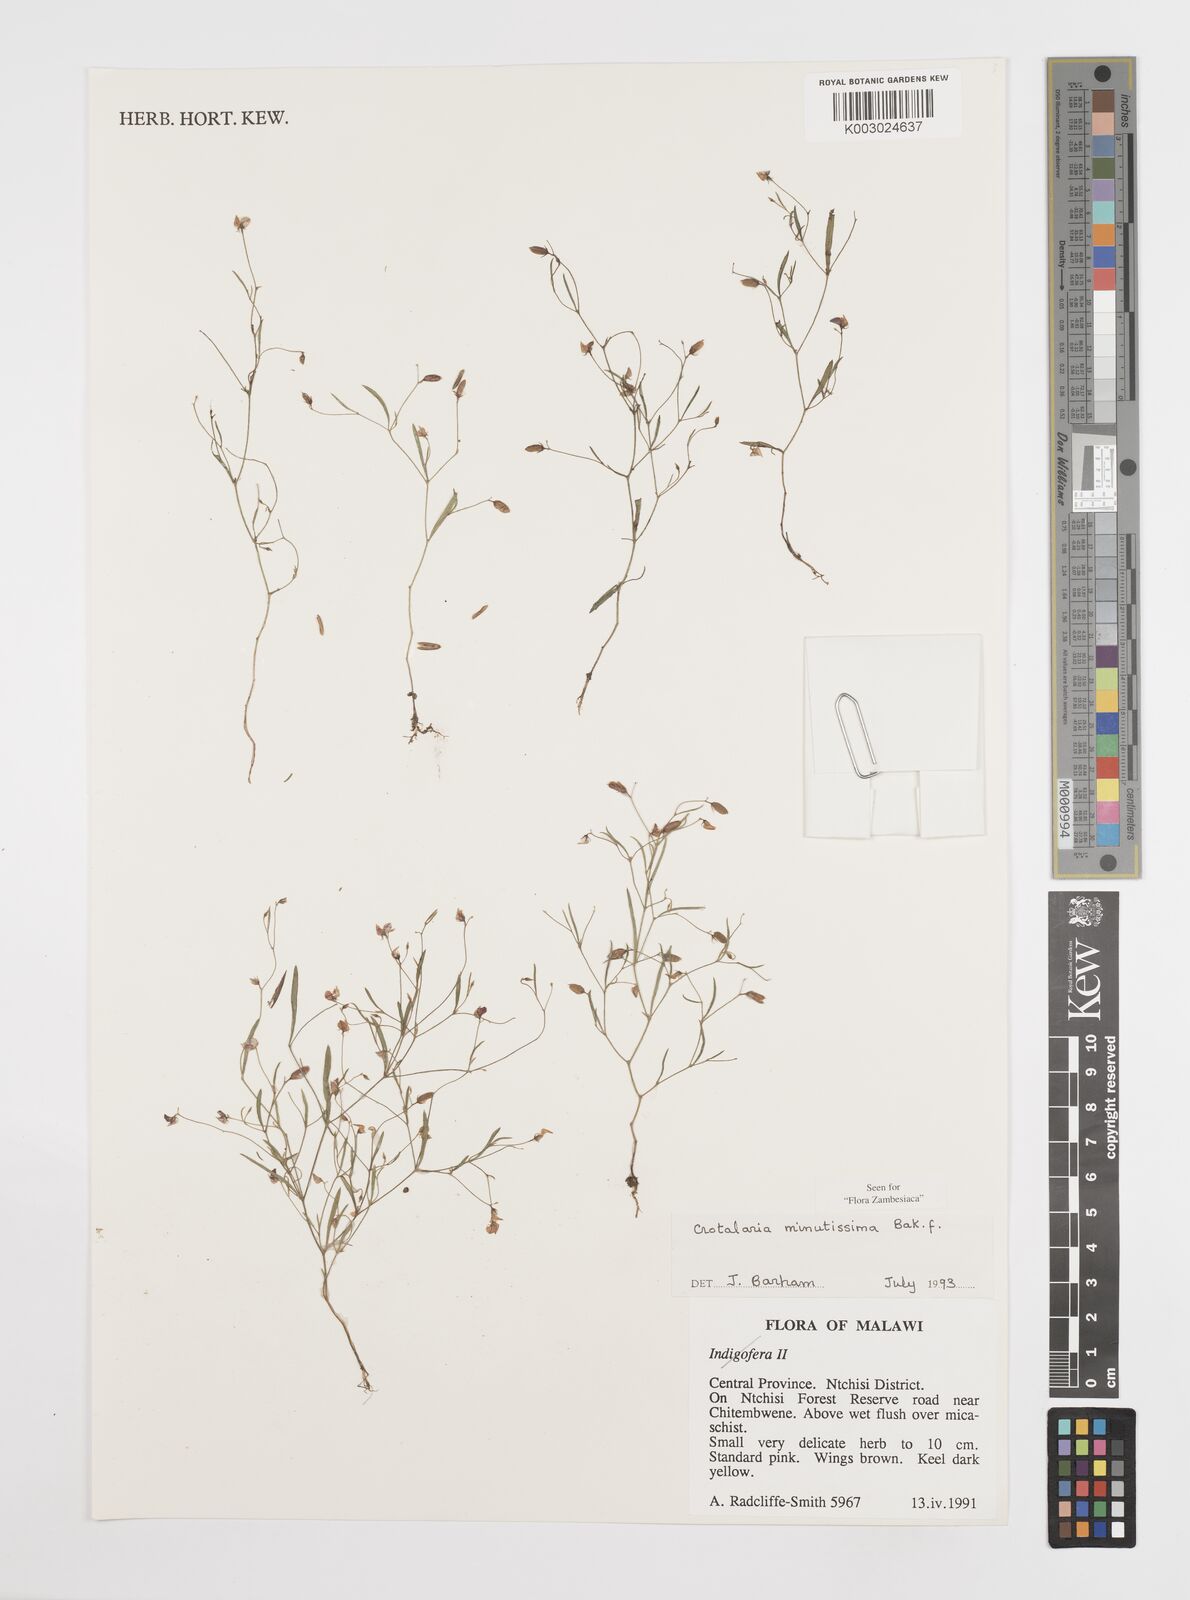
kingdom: Plantae
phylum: Tracheophyta
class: Magnoliopsida
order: Fabales
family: Fabaceae
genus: Crotalaria
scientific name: Crotalaria minutissima
